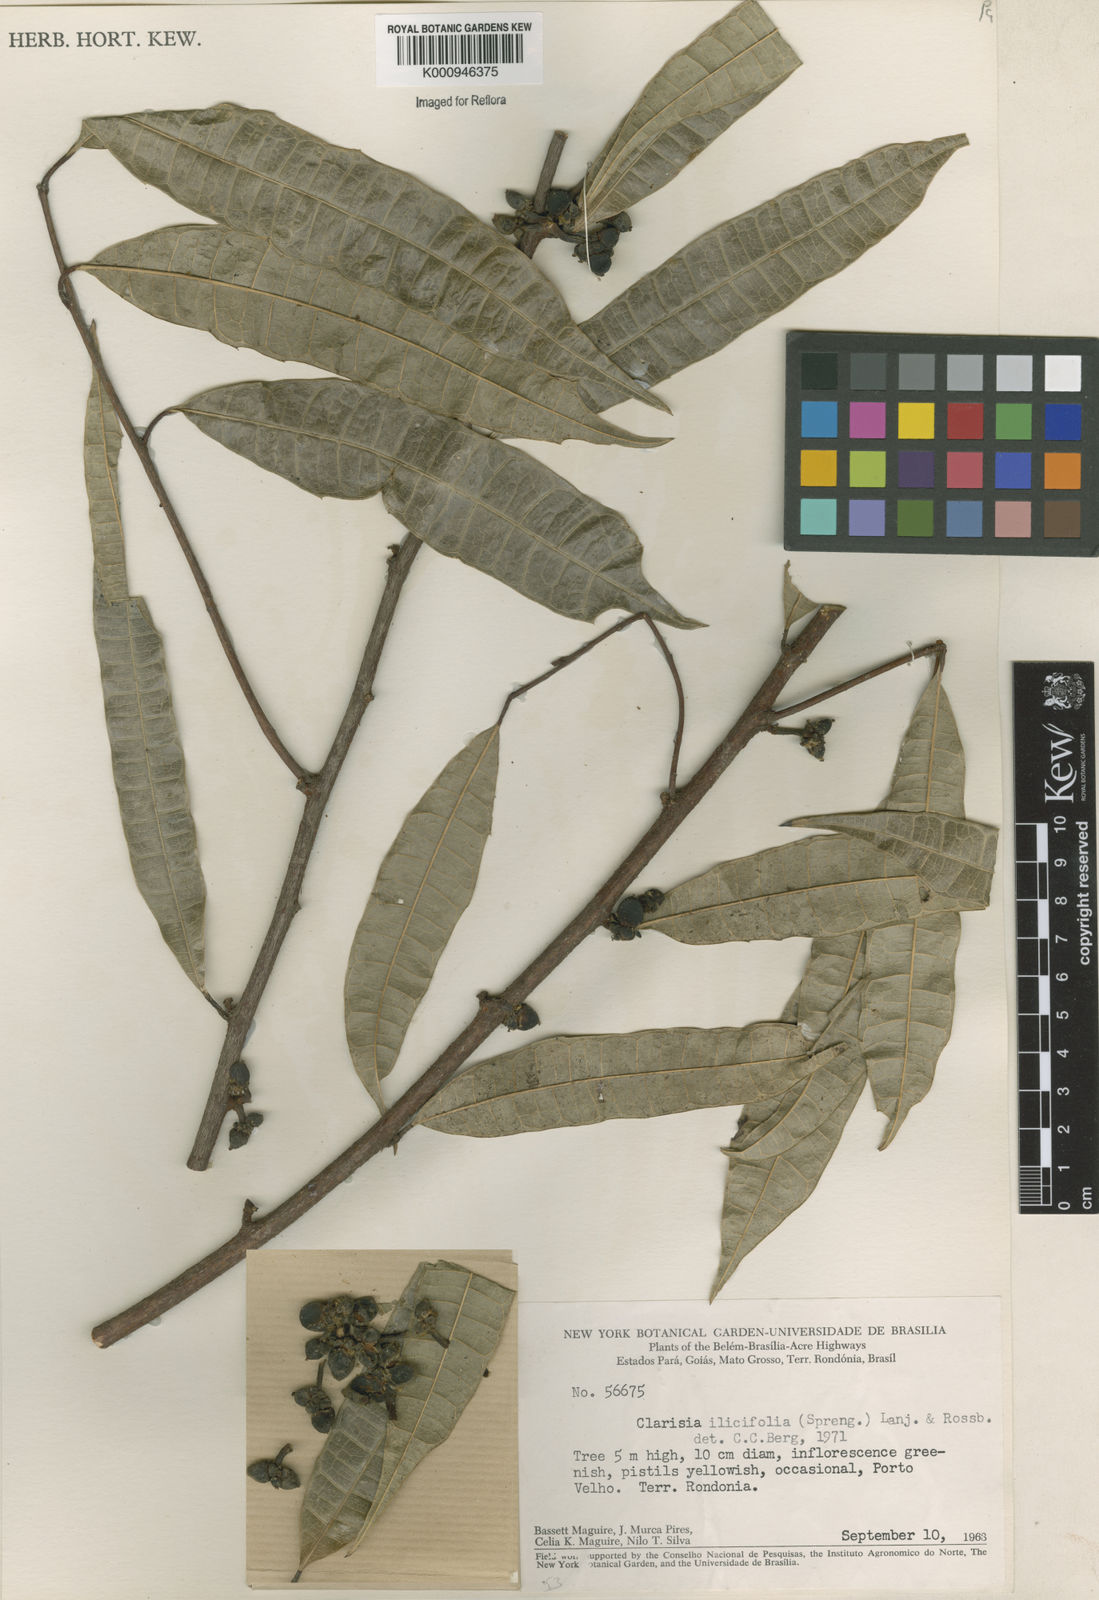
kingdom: Plantae
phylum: Tracheophyta
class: Magnoliopsida
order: Rosales
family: Moraceae
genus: Clarisia
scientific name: Clarisia ilicifolia
